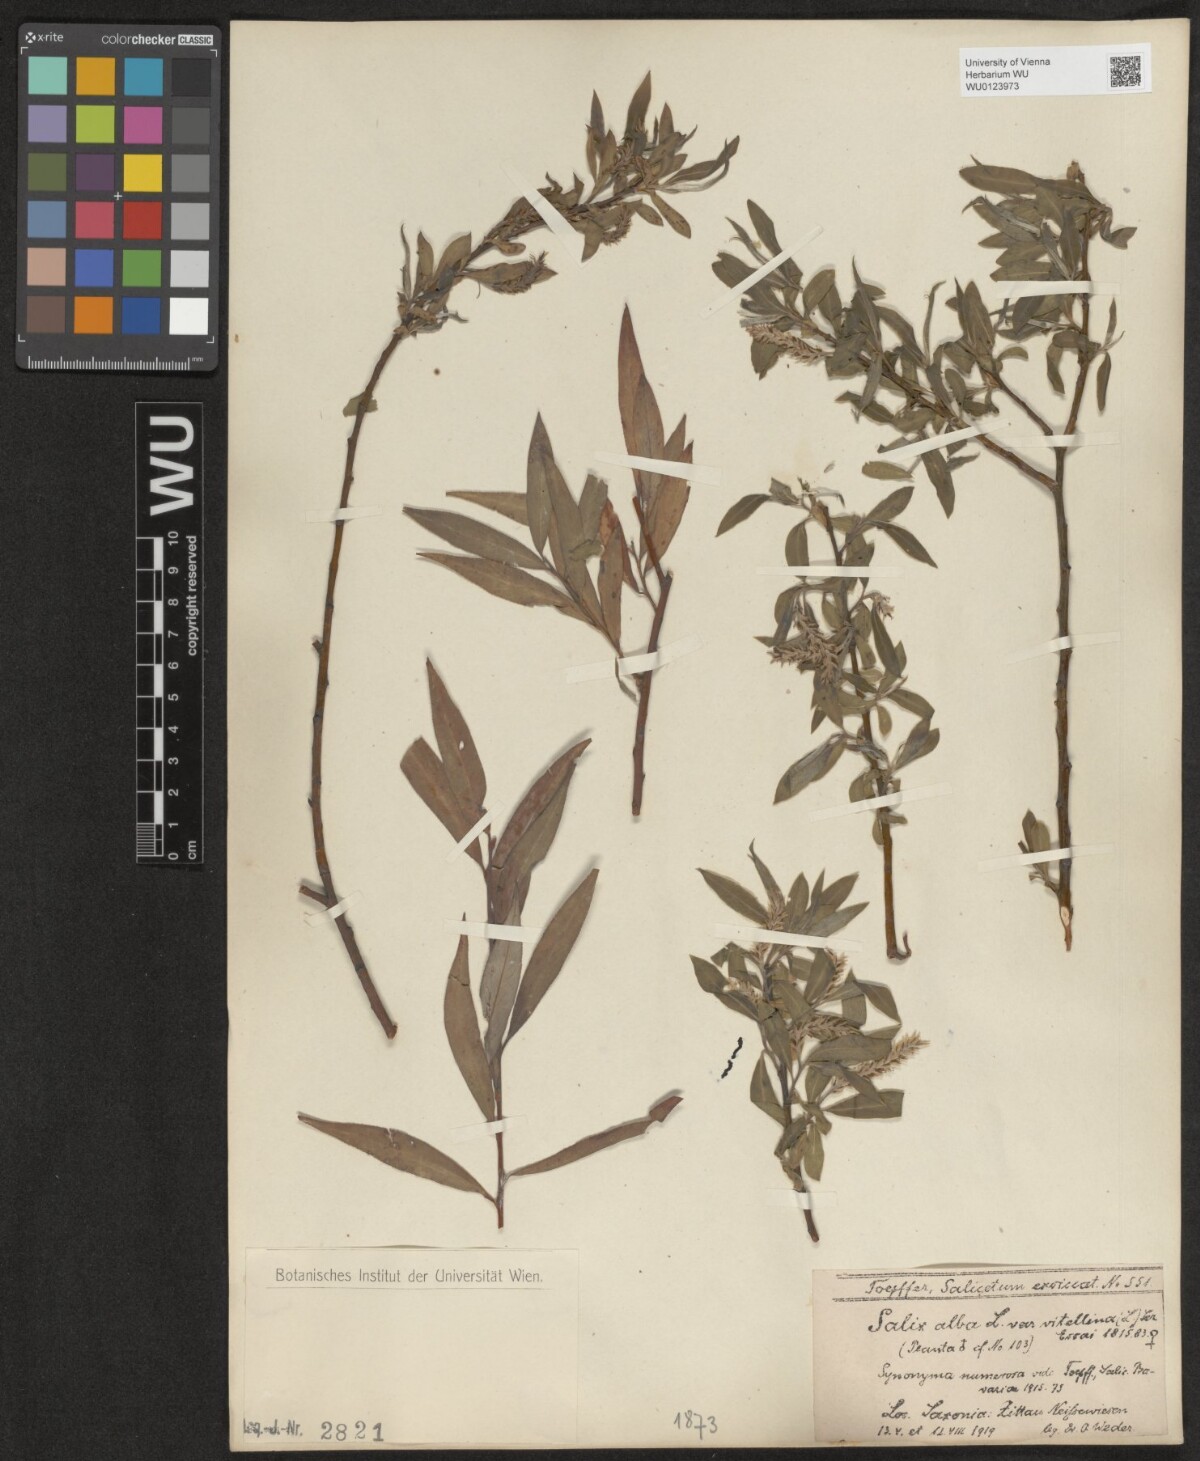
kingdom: Plantae
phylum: Tracheophyta
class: Magnoliopsida
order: Malpighiales
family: Salicaceae
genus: Salix
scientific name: Salix alba
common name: White willow
